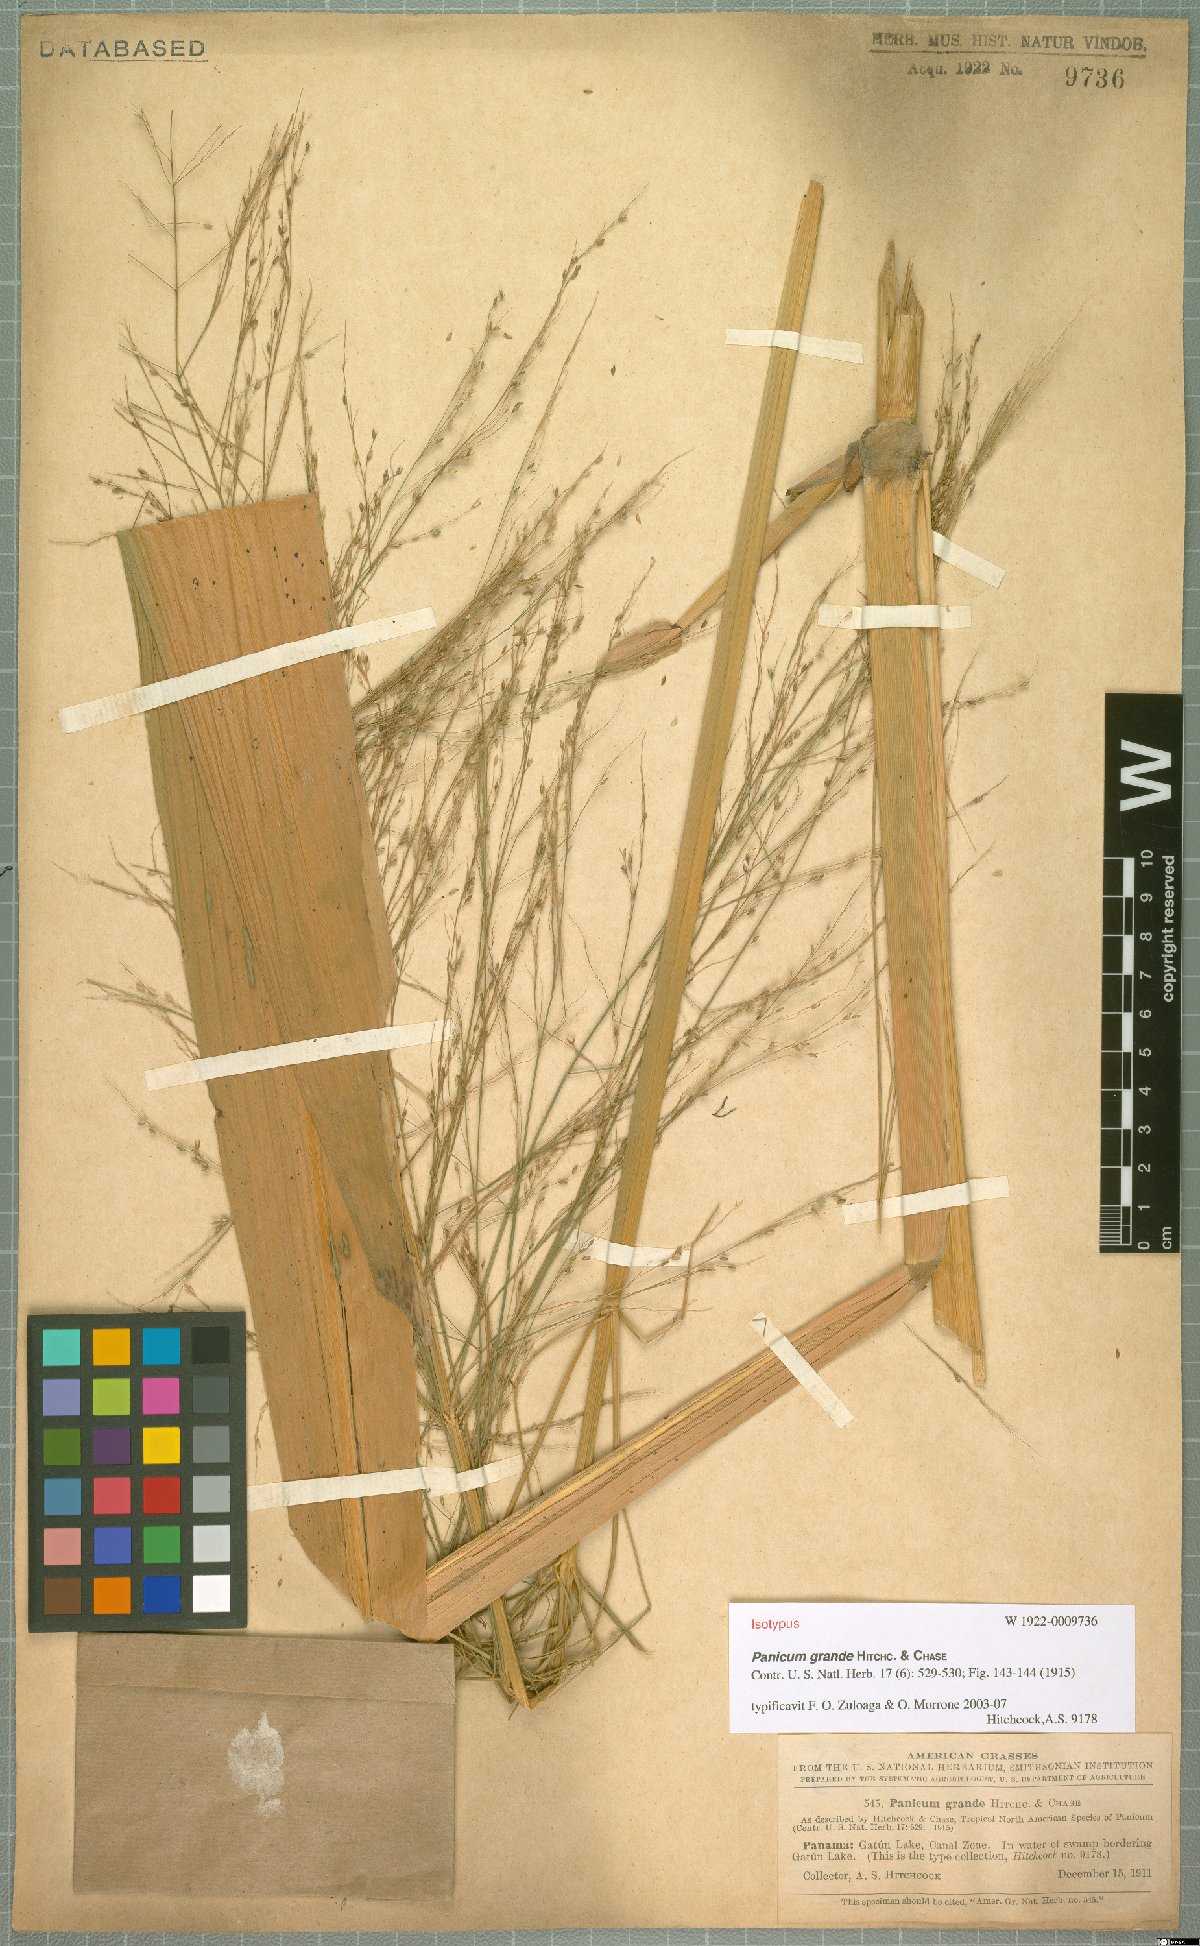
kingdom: Plantae
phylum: Tracheophyta
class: Liliopsida
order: Poales
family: Poaceae
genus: Hymenachne
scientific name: Hymenachne grandis
